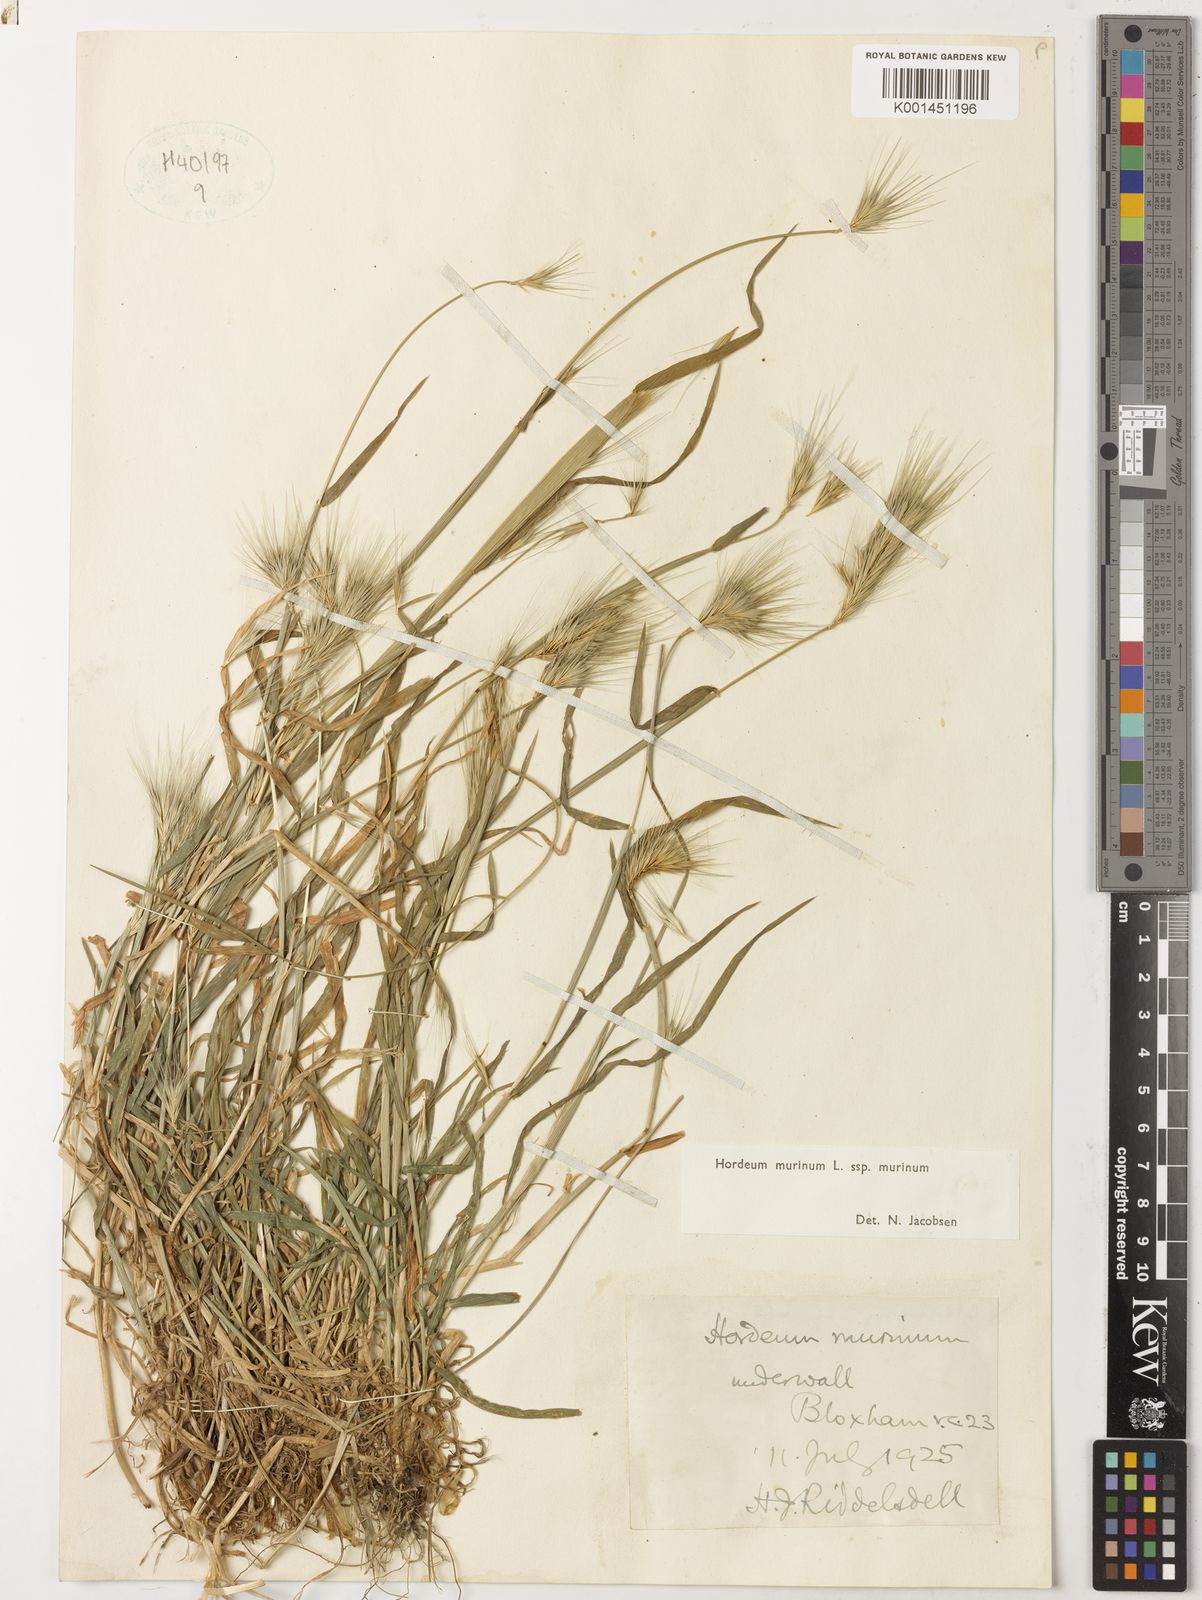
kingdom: Plantae
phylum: Tracheophyta
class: Liliopsida
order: Poales
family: Poaceae
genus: Hordeum
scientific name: Hordeum murinum
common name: Wall barley
